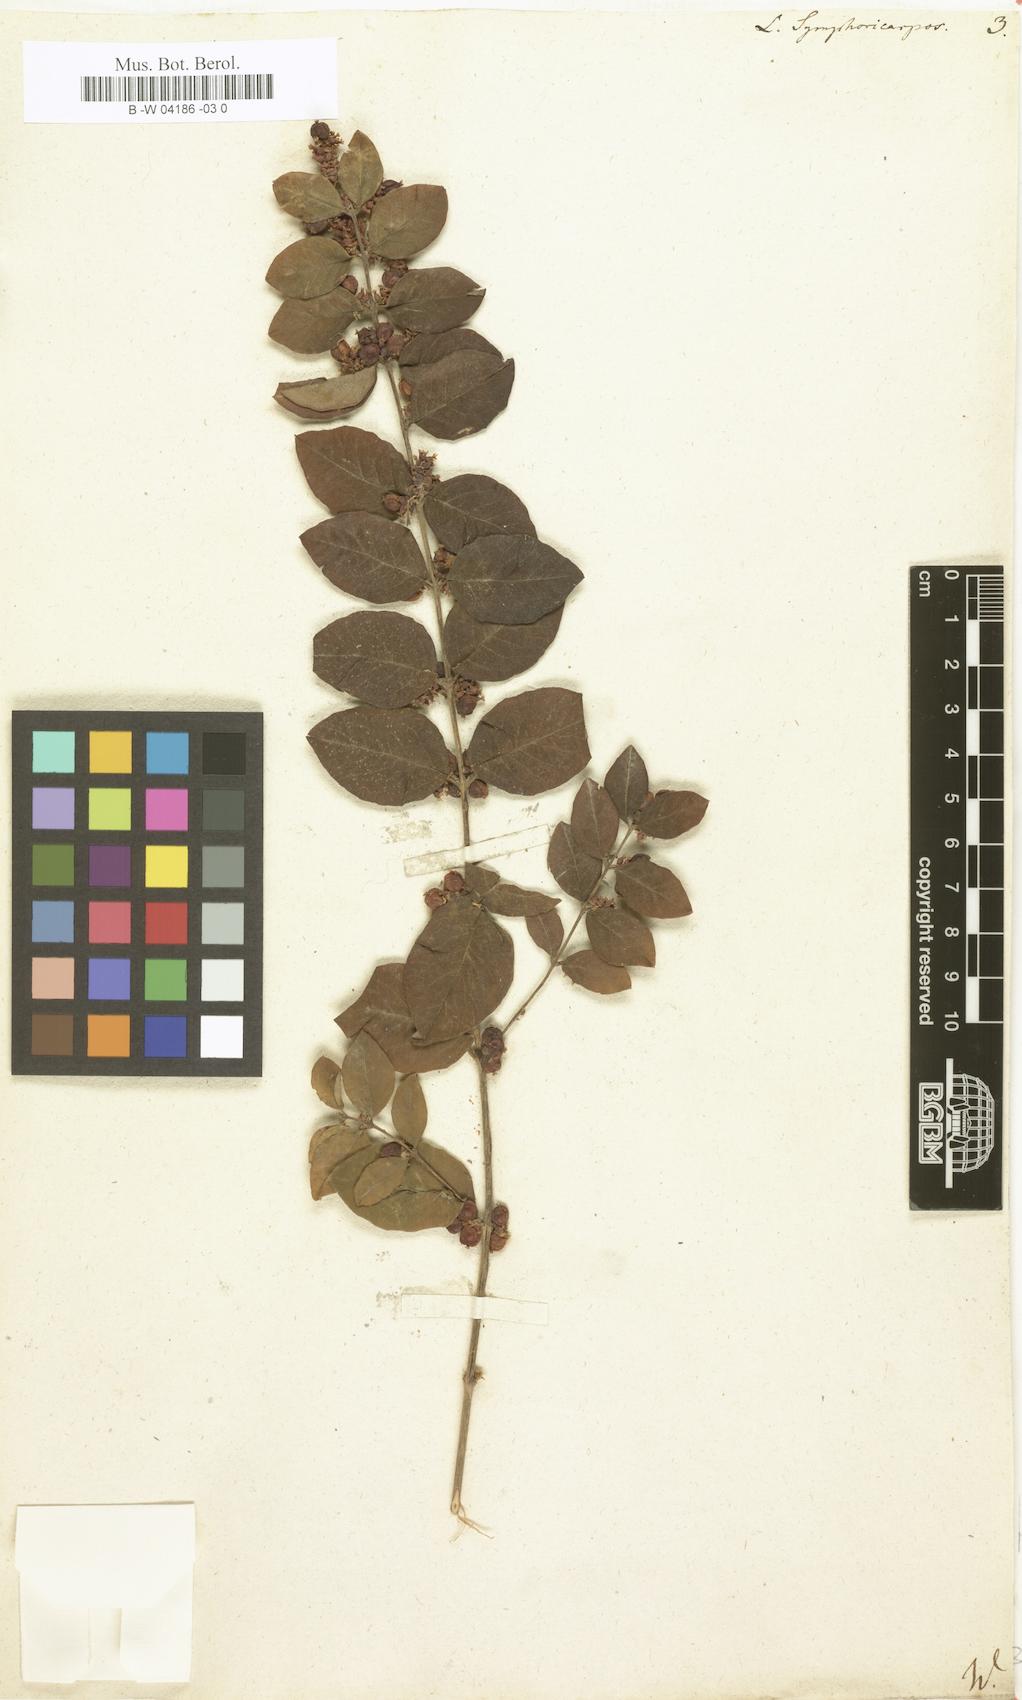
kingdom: Plantae
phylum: Tracheophyta
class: Magnoliopsida
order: Dipsacales
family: Caprifoliaceae
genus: Symphoricarpos
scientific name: Symphoricarpos orbiculatus
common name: Coralberry
